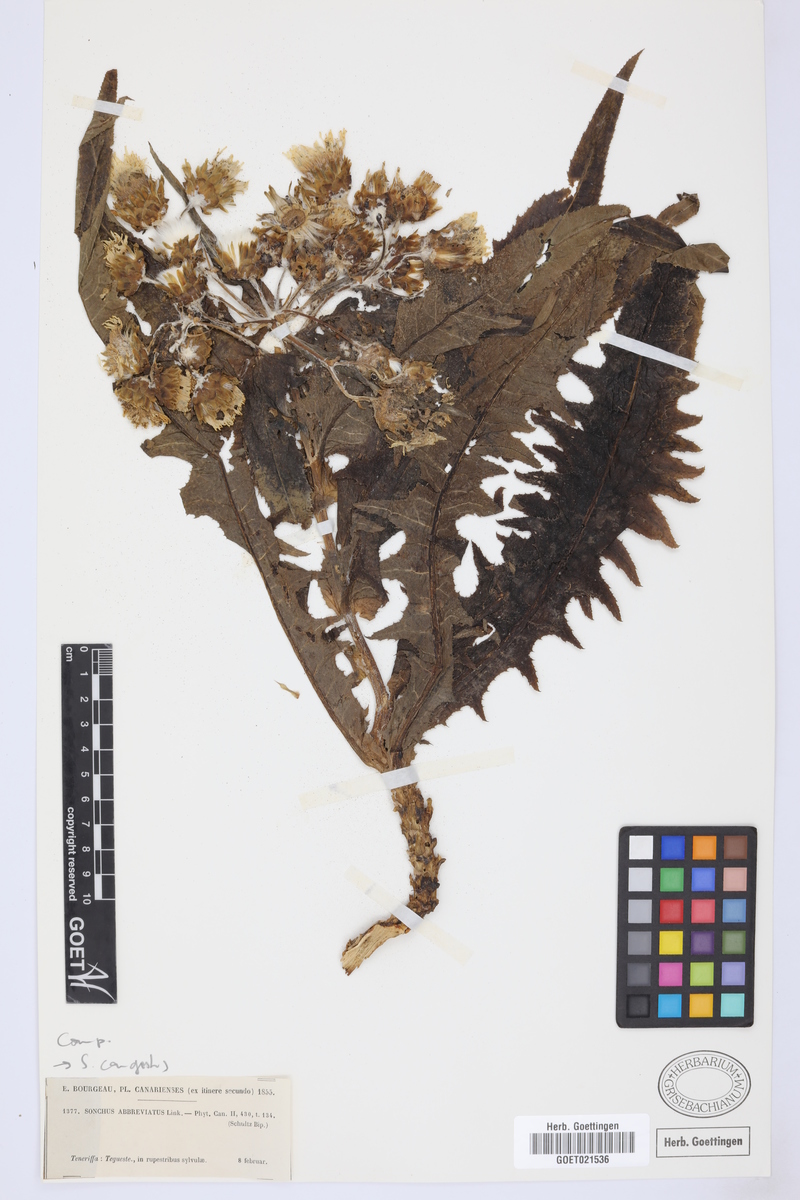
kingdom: Plantae
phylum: Tracheophyta
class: Magnoliopsida
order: Asterales
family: Asteraceae
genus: Sonchus
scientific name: Sonchus congestus
